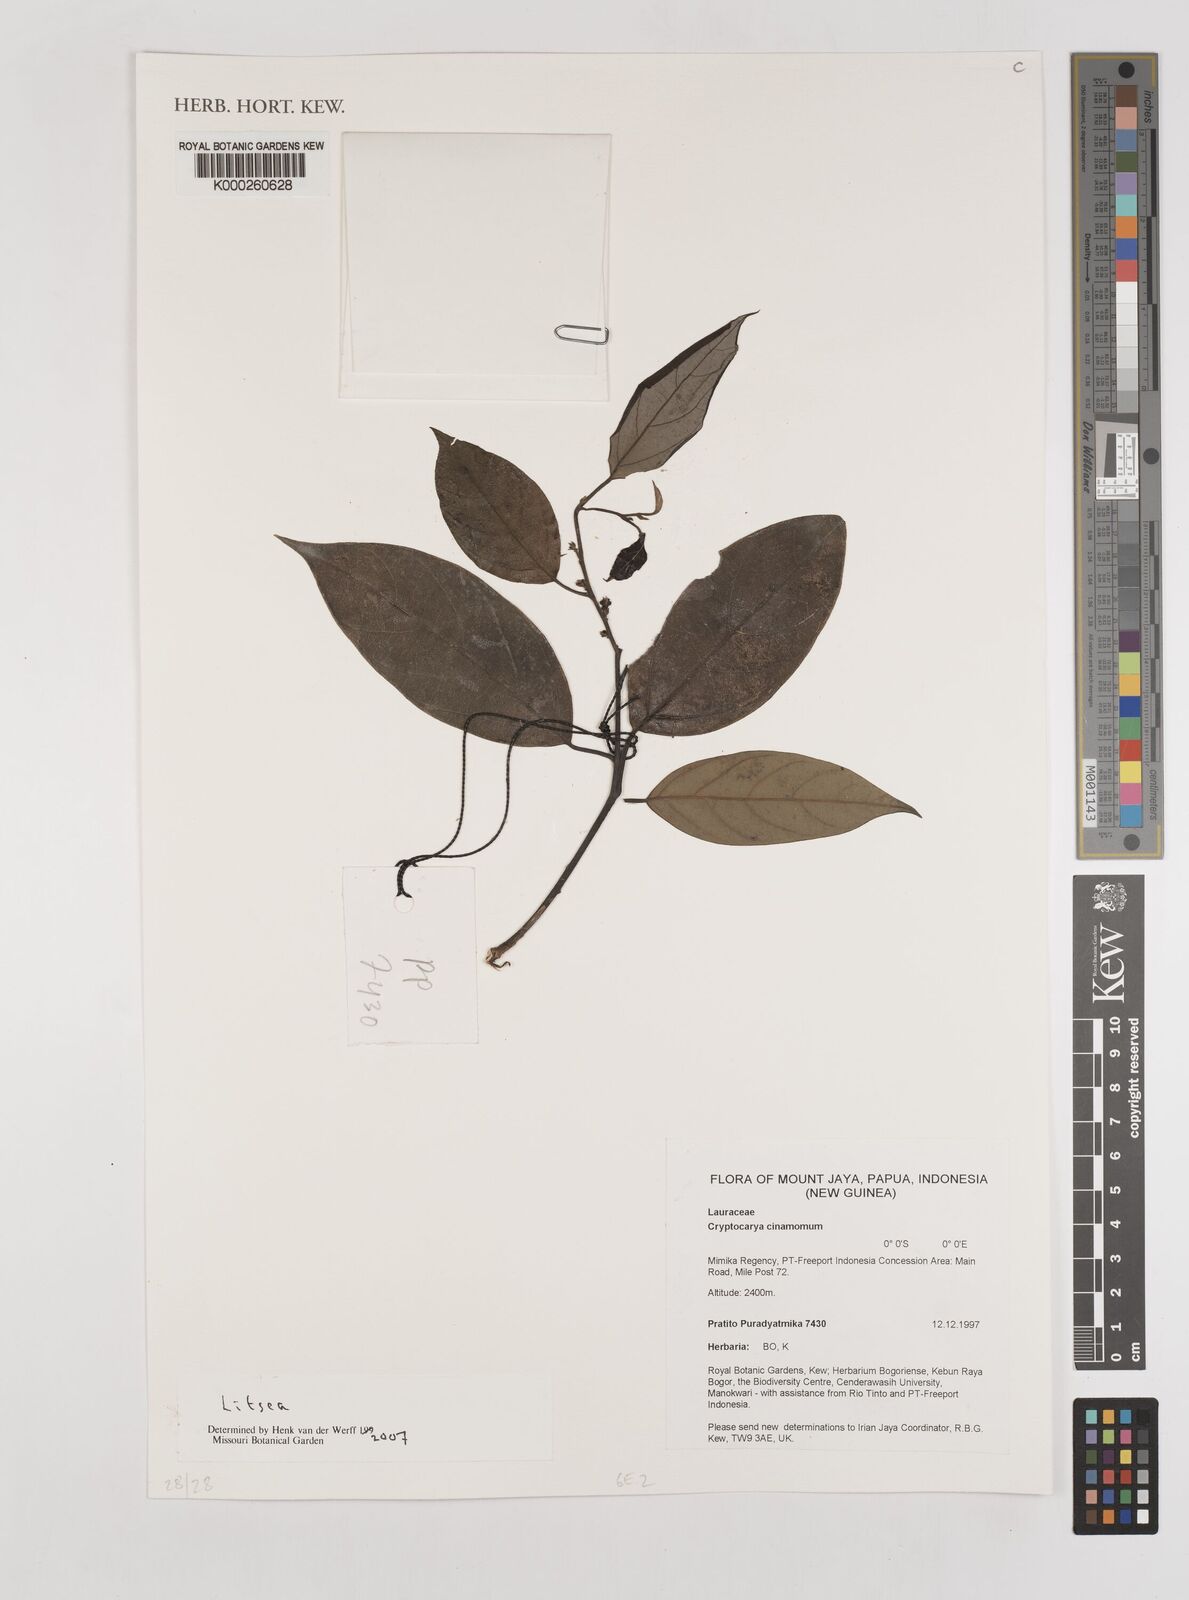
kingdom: Plantae
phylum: Tracheophyta
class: Magnoliopsida
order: Laurales
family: Lauraceae
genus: Litsea
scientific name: Litsea
